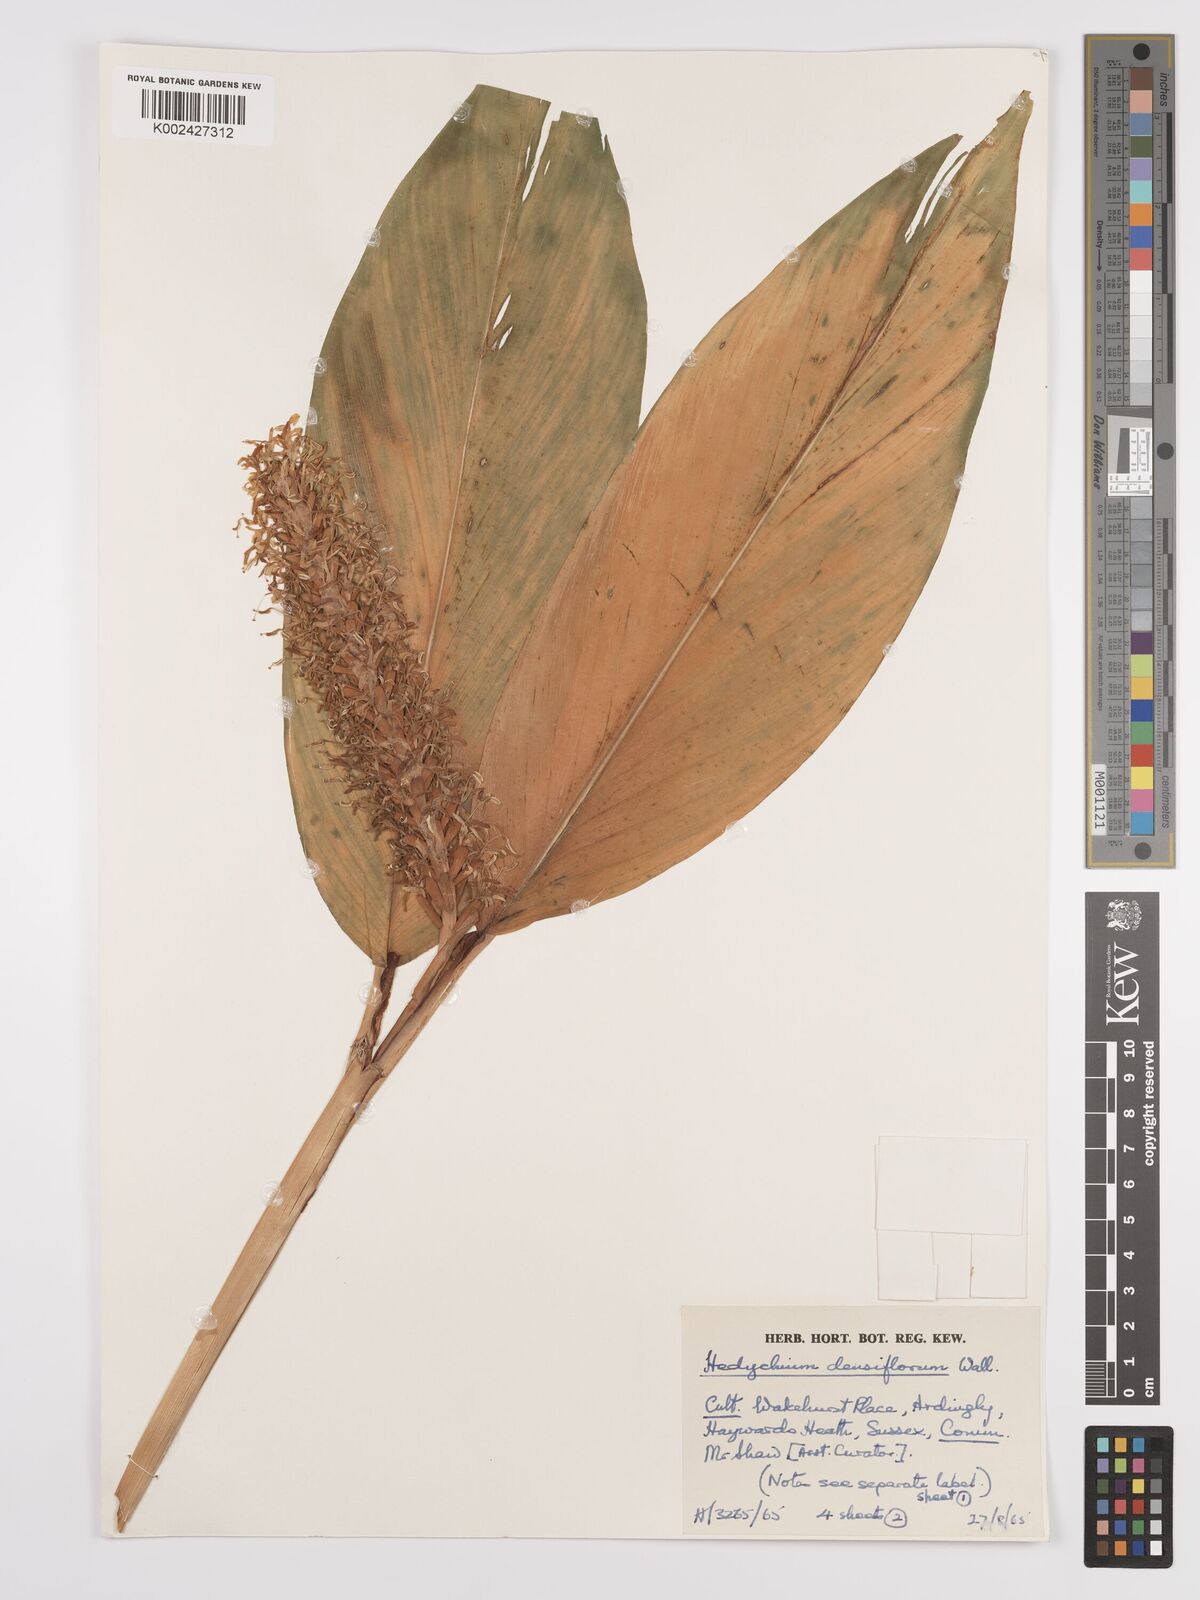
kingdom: Plantae
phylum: Tracheophyta
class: Liliopsida
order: Zingiberales
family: Zingiberaceae
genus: Hedychium
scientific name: Hedychium densiflorum
